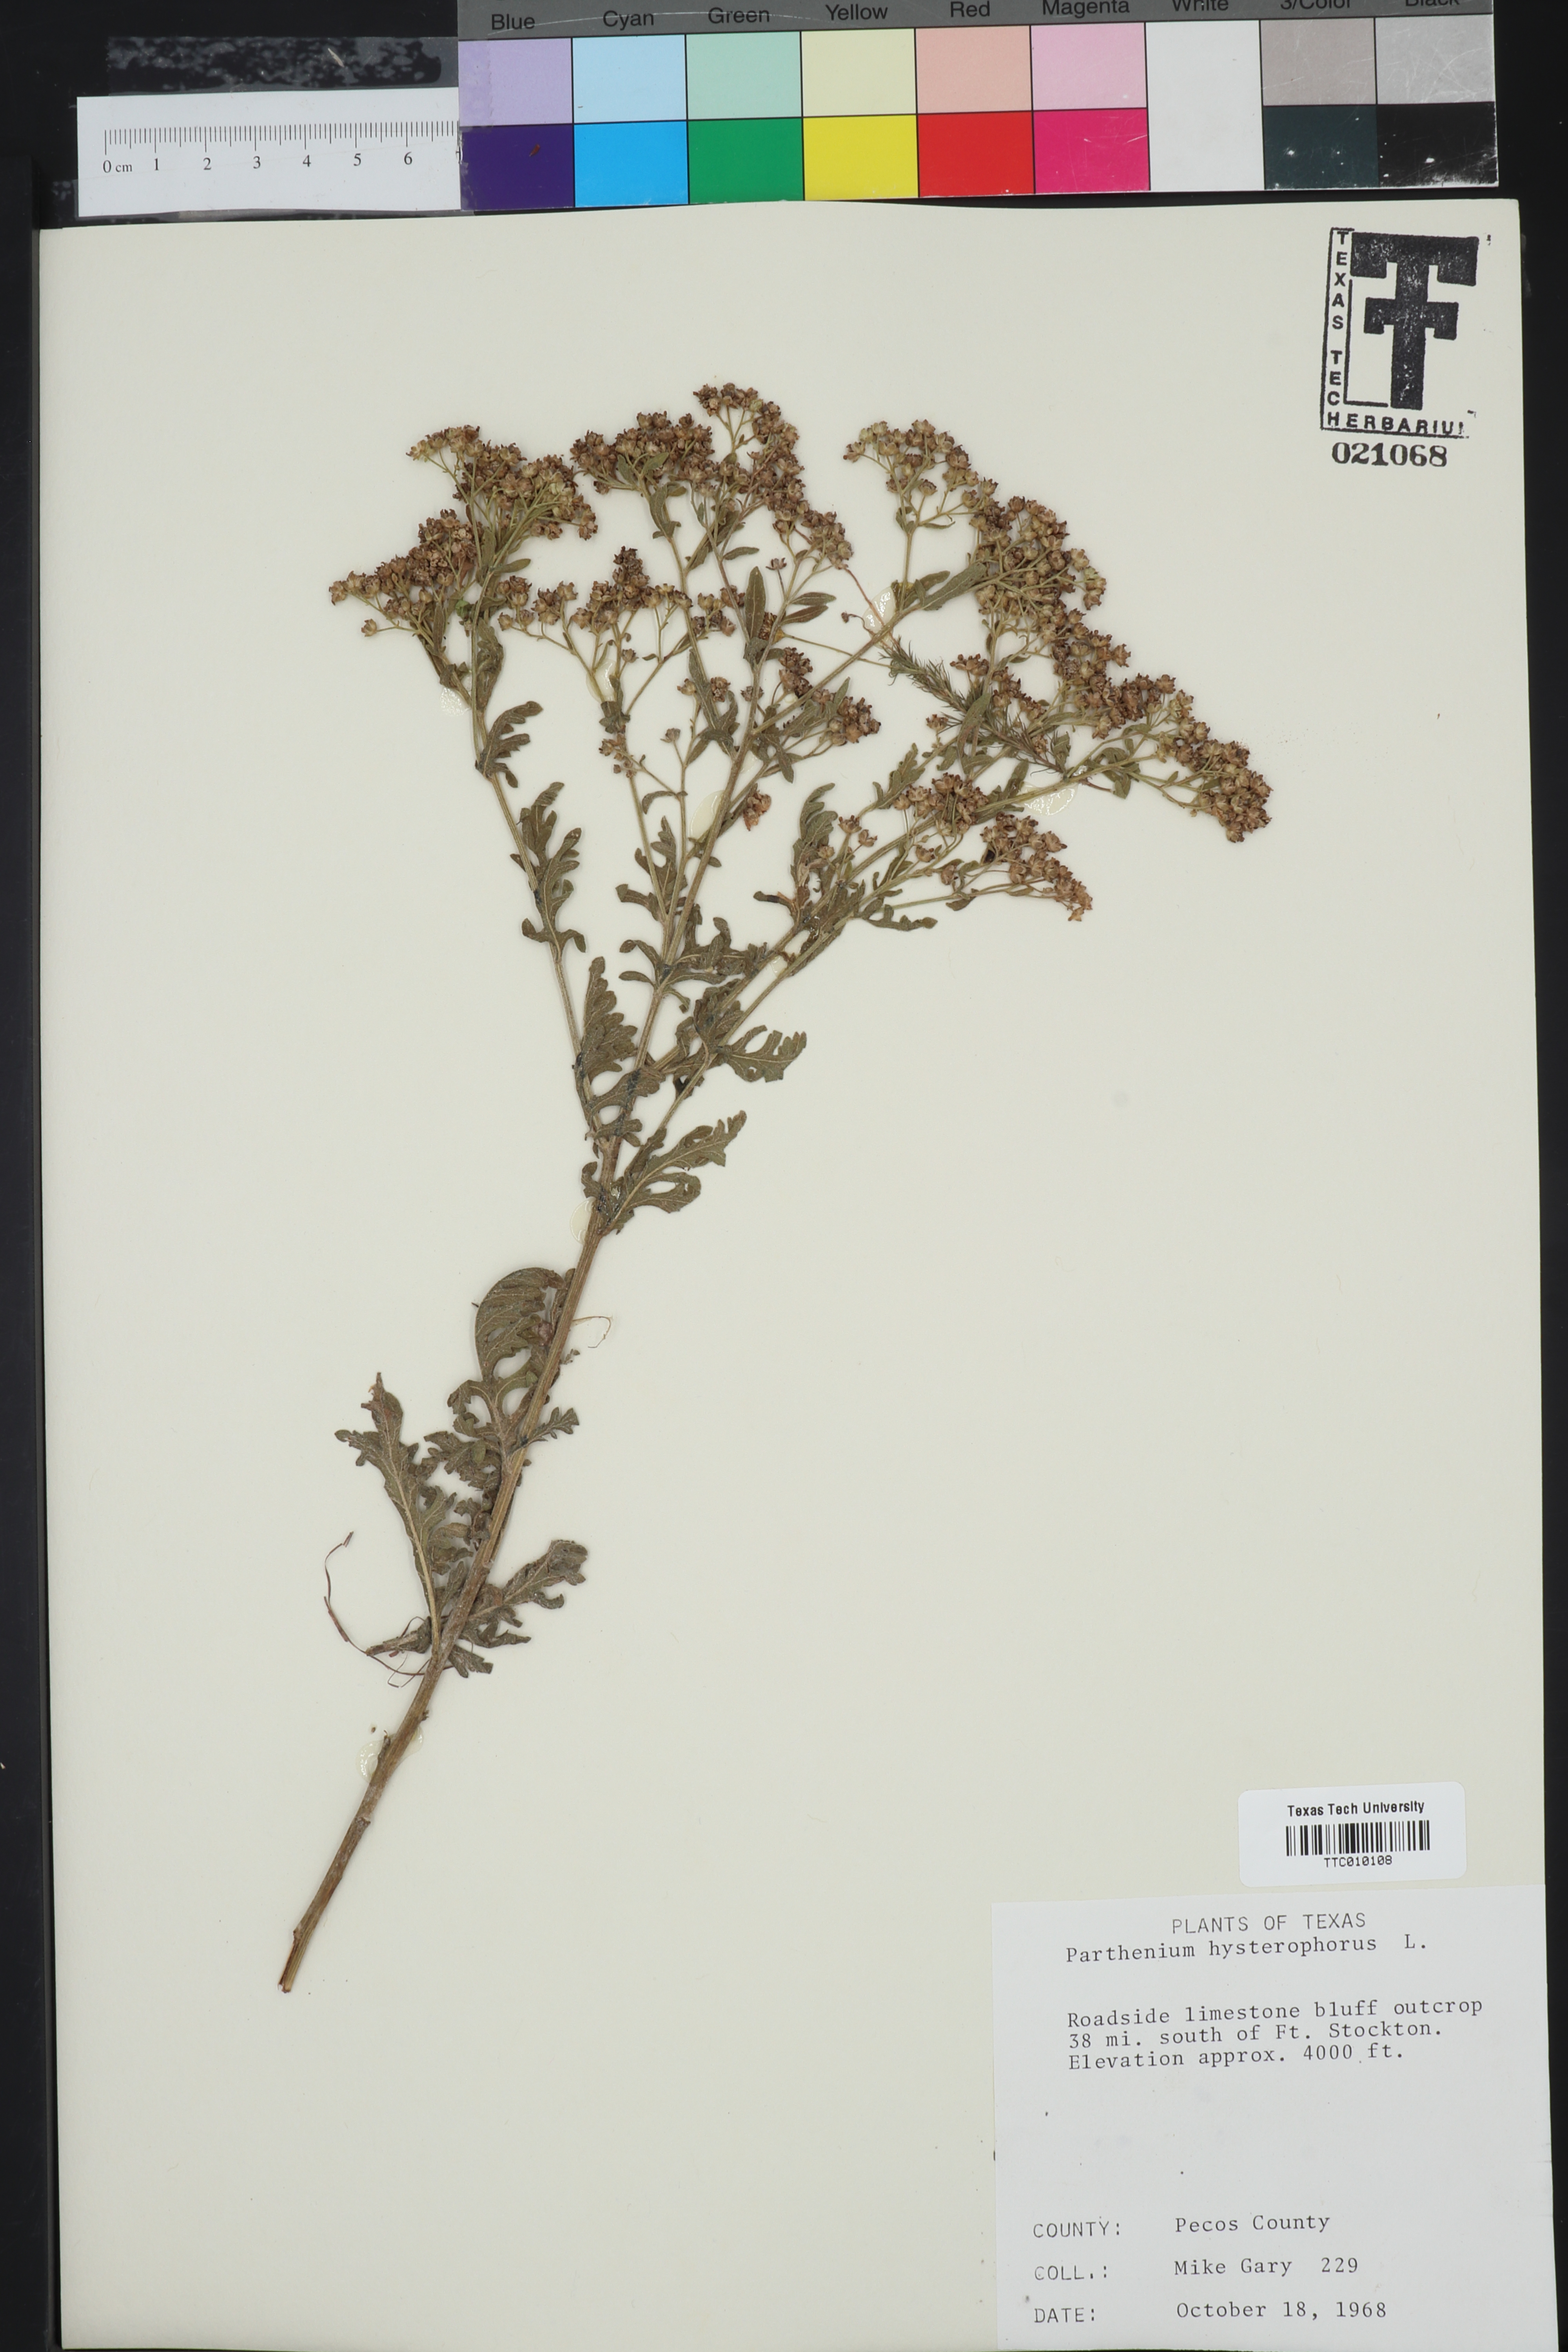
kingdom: Plantae
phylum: Tracheophyta
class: Magnoliopsida
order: Asterales
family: Asteraceae
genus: Parthenium
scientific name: Parthenium hysterophorus
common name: Santa maria feverfew
